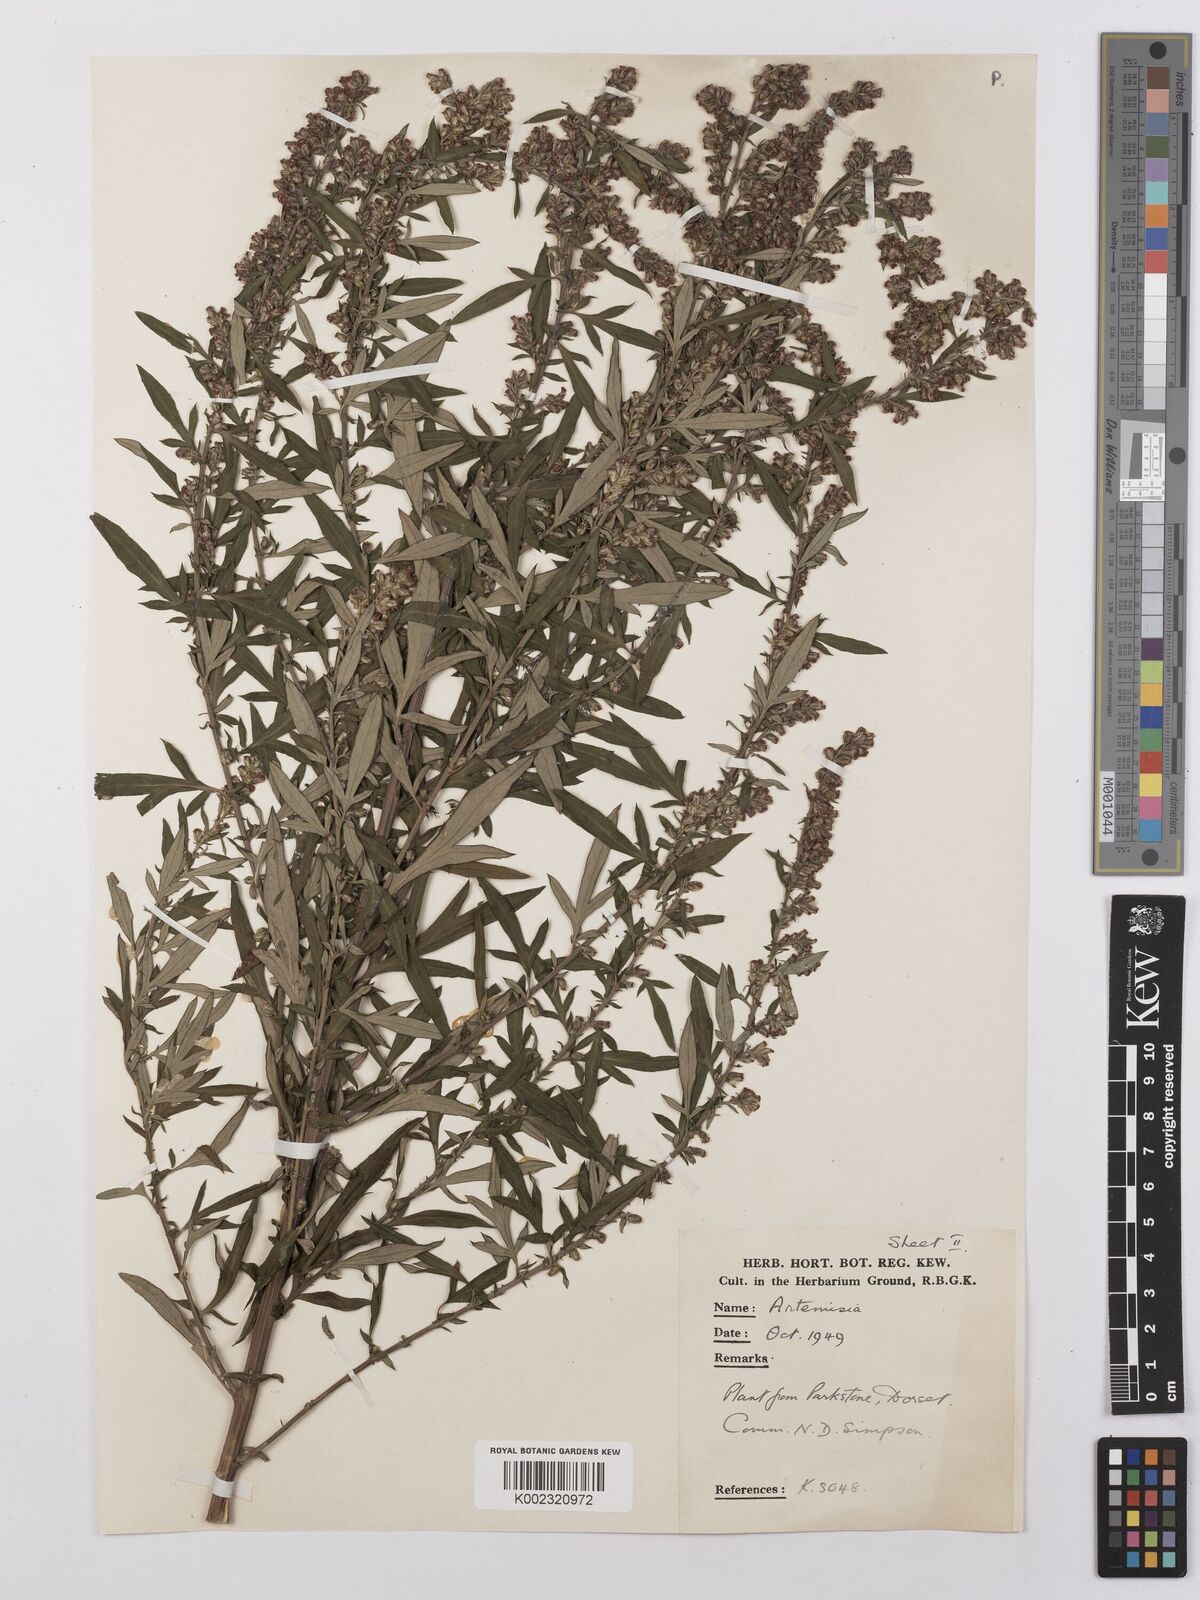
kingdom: Plantae
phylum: Tracheophyta
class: Magnoliopsida
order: Asterales
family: Asteraceae
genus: Artemisia
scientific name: Artemisia
